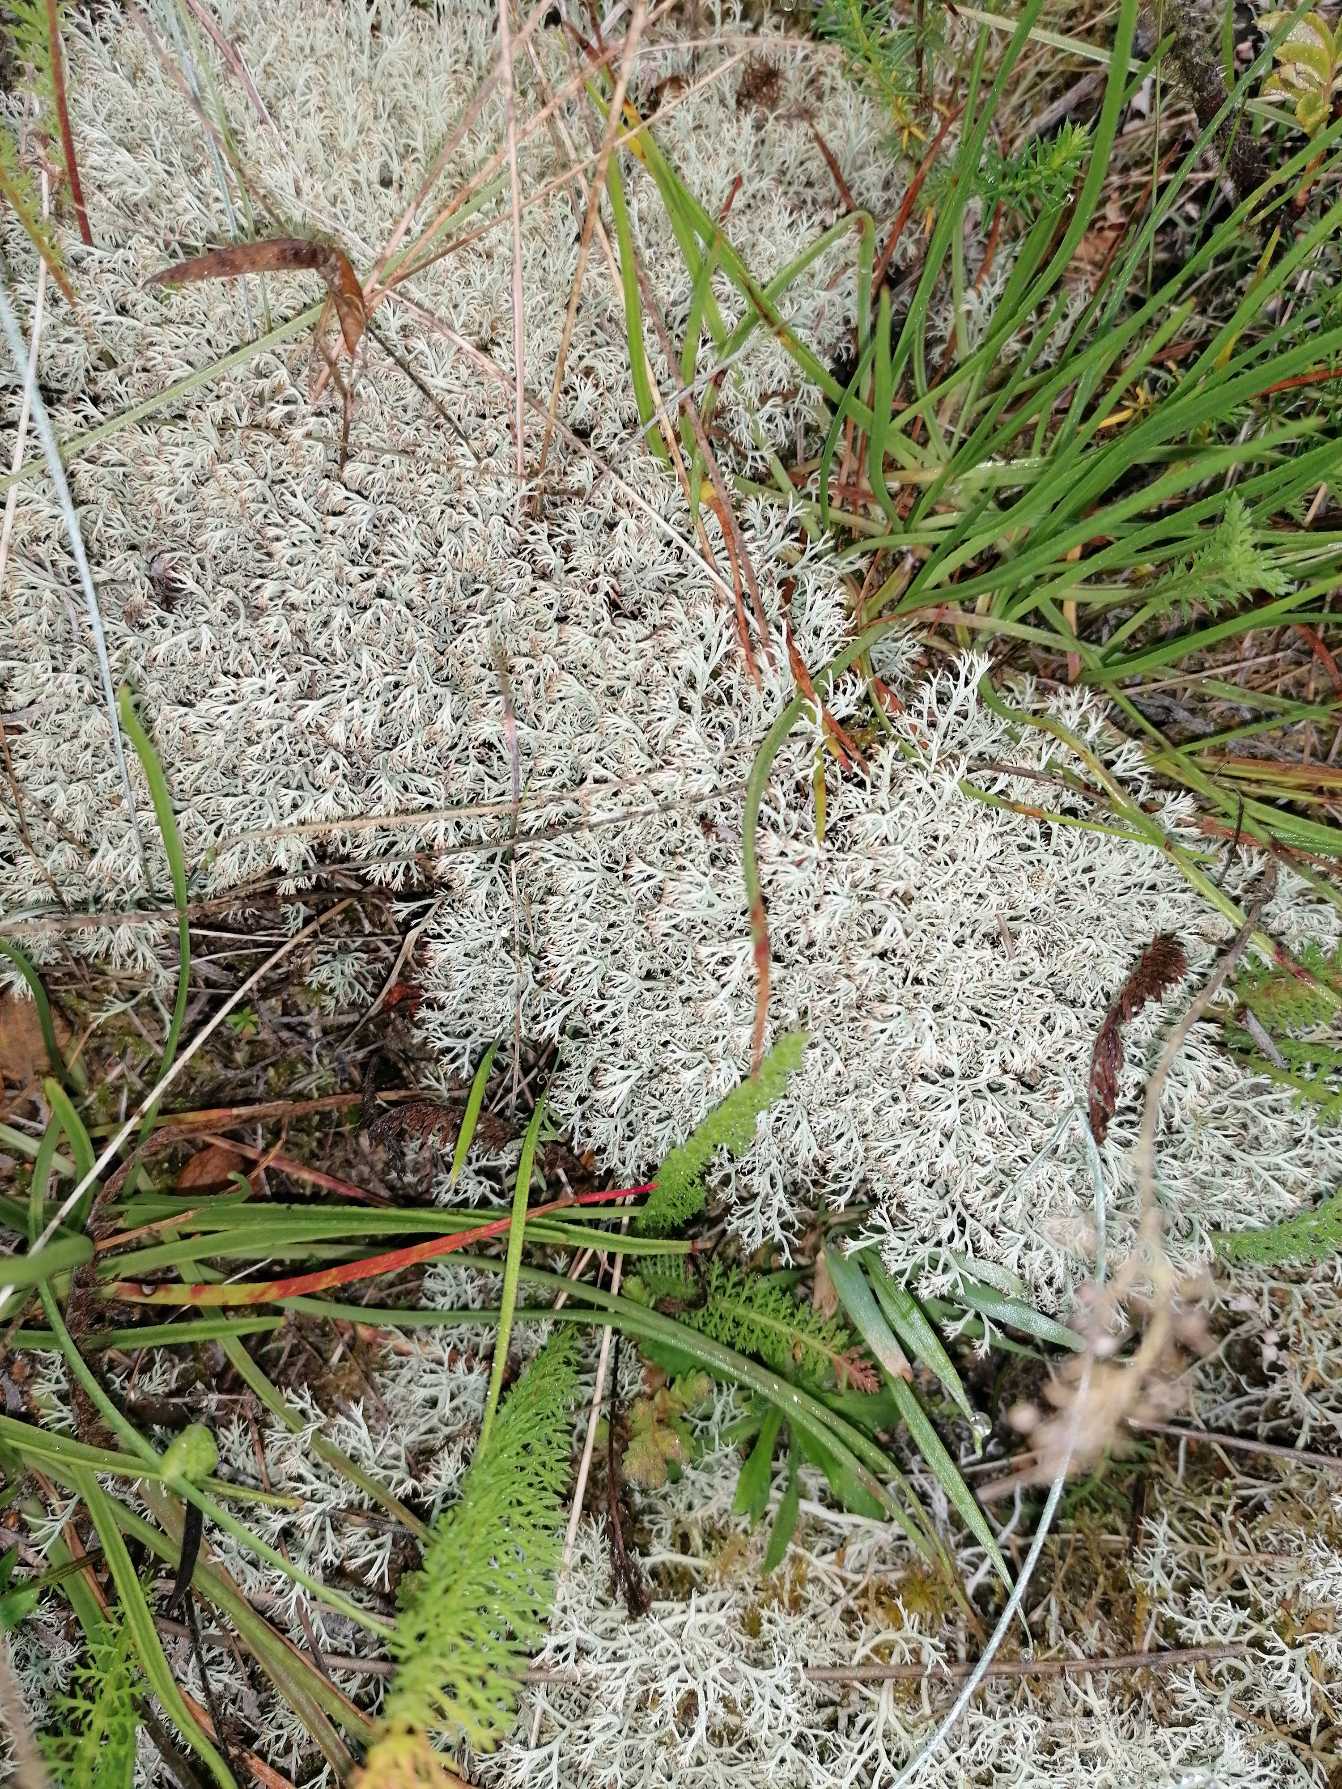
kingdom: Fungi
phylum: Ascomycota
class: Lecanoromycetes
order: Lecanorales
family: Cladoniaceae
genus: Cladonia
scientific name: Cladonia ciliata
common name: Spinkel rensdyrlav
